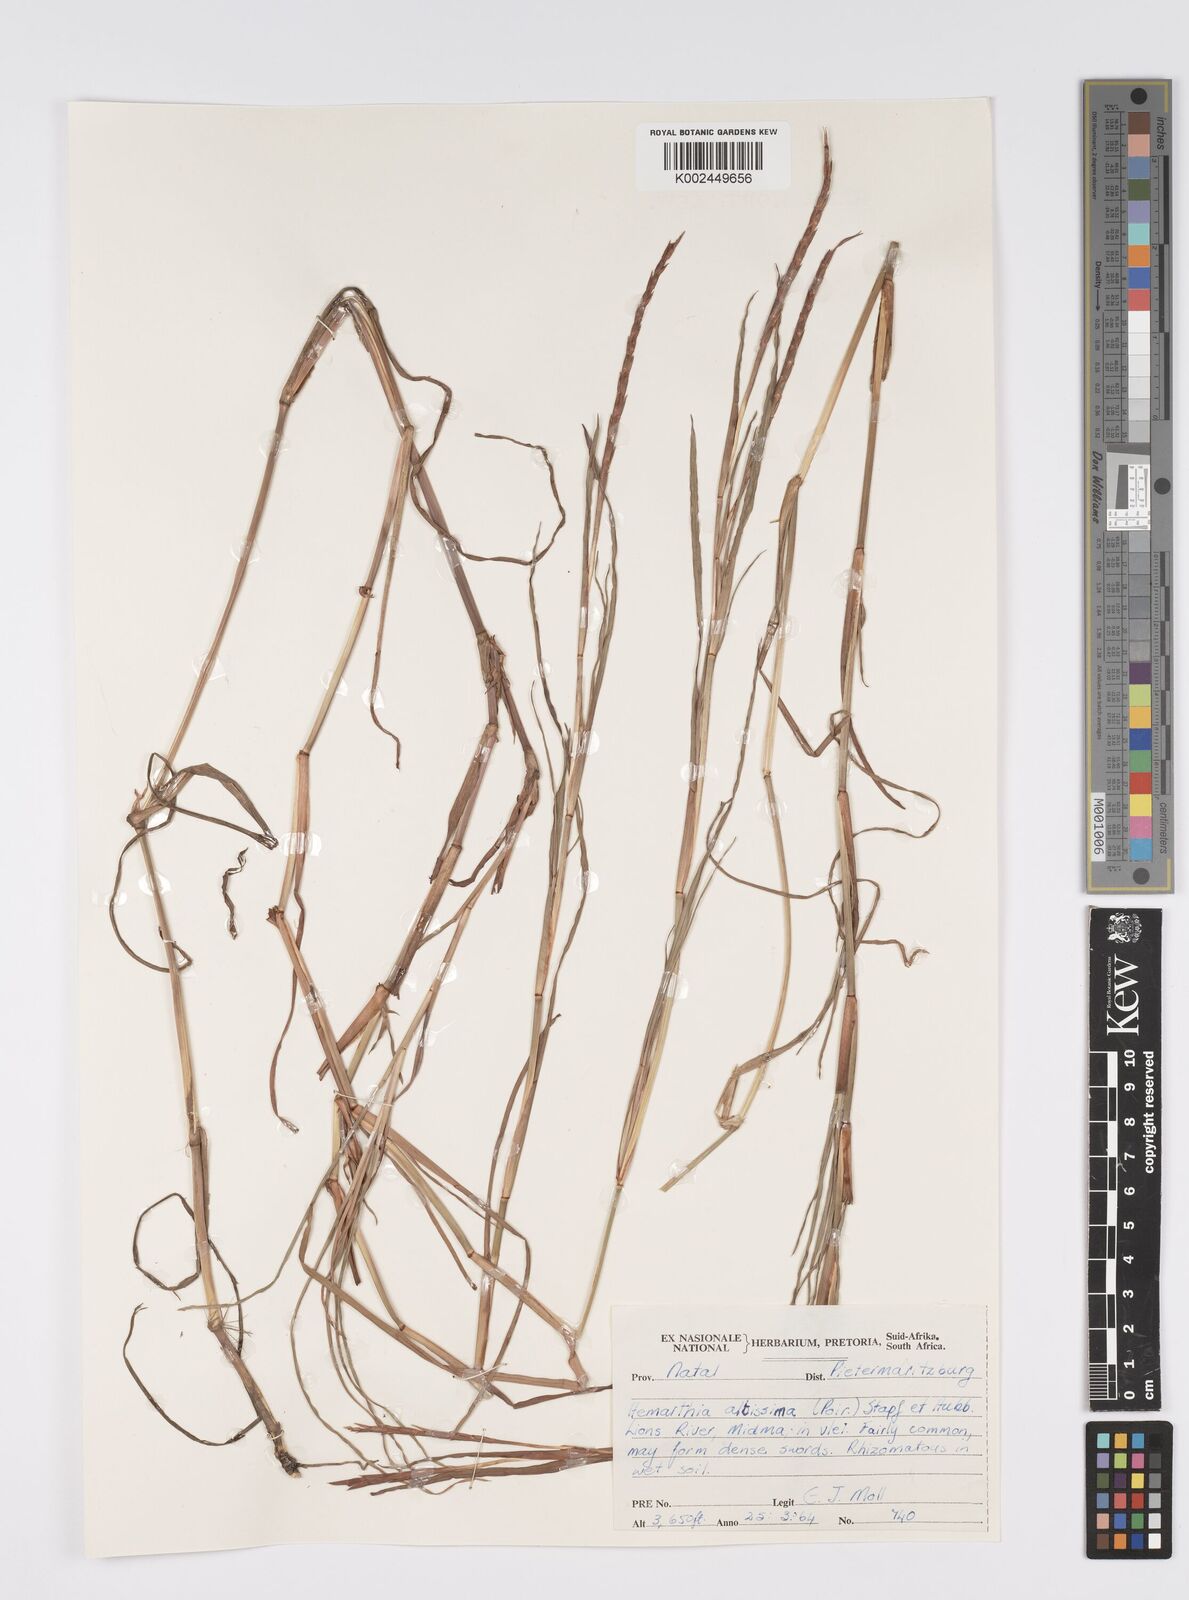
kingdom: Plantae
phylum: Tracheophyta
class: Liliopsida
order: Poales
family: Poaceae
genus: Hemarthria
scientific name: Hemarthria altissima
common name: African jointgrass
